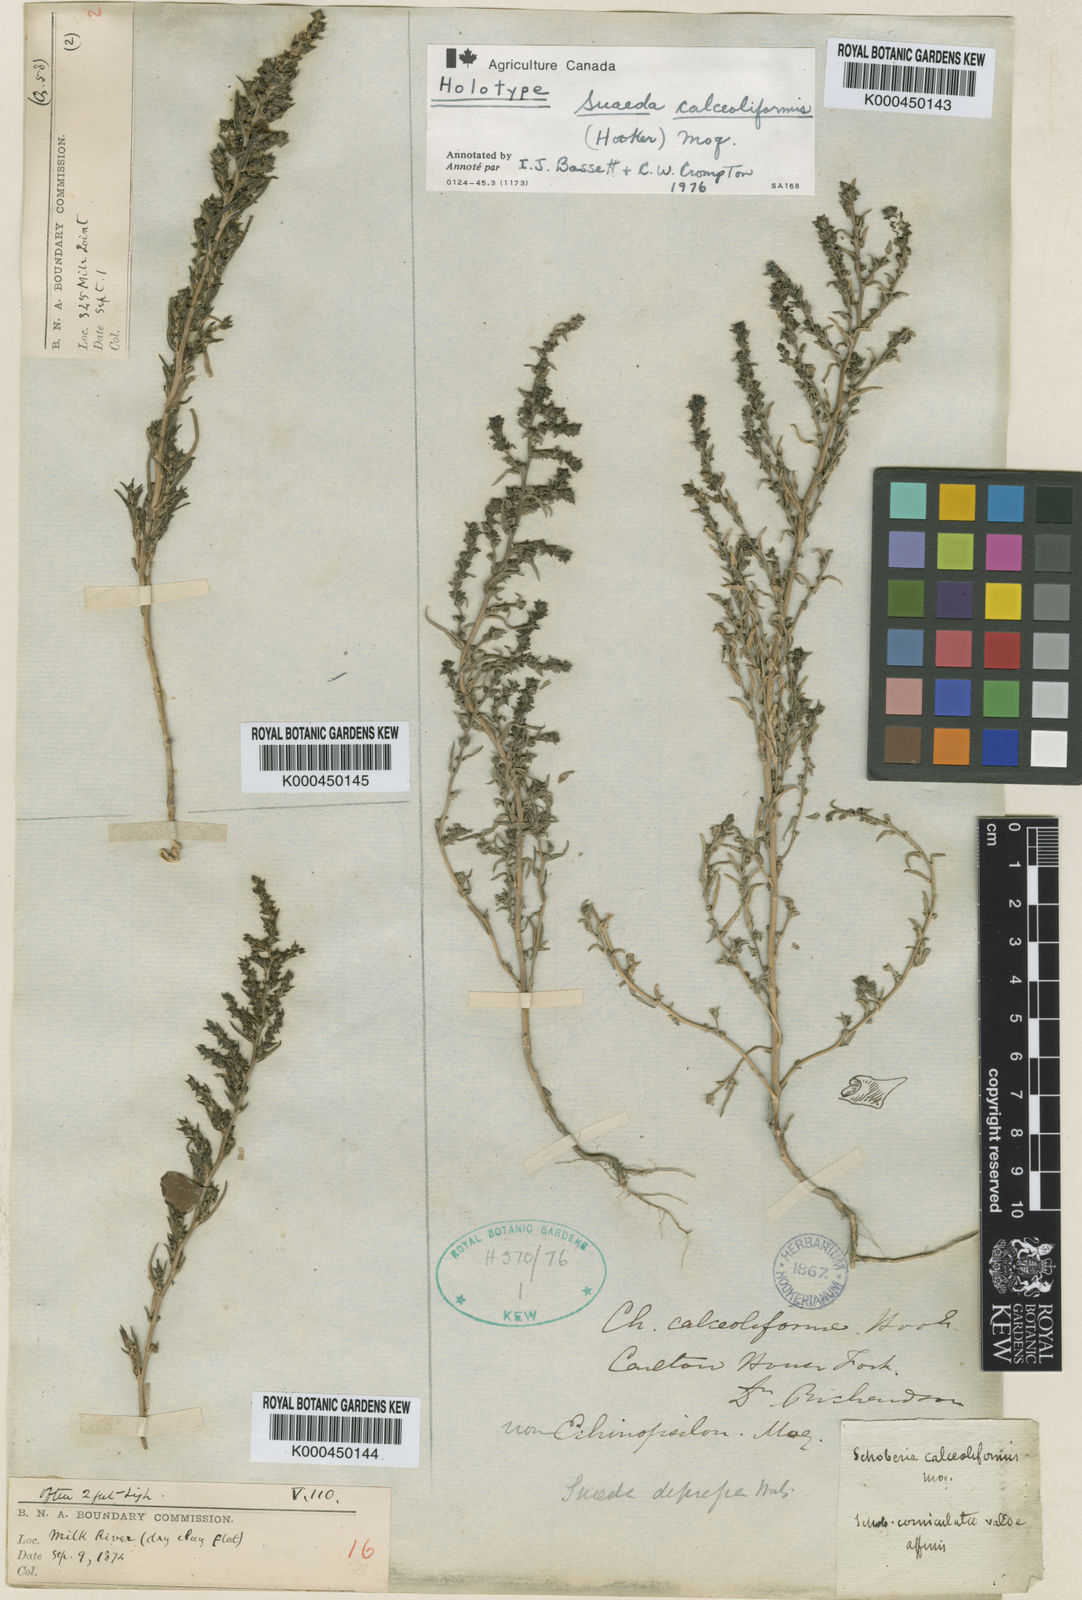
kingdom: Plantae
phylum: Tracheophyta
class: Magnoliopsida
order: Caryophyllales
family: Amaranthaceae
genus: Suaeda
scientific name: Suaeda calceoliformis
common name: Pursh's seepweed
